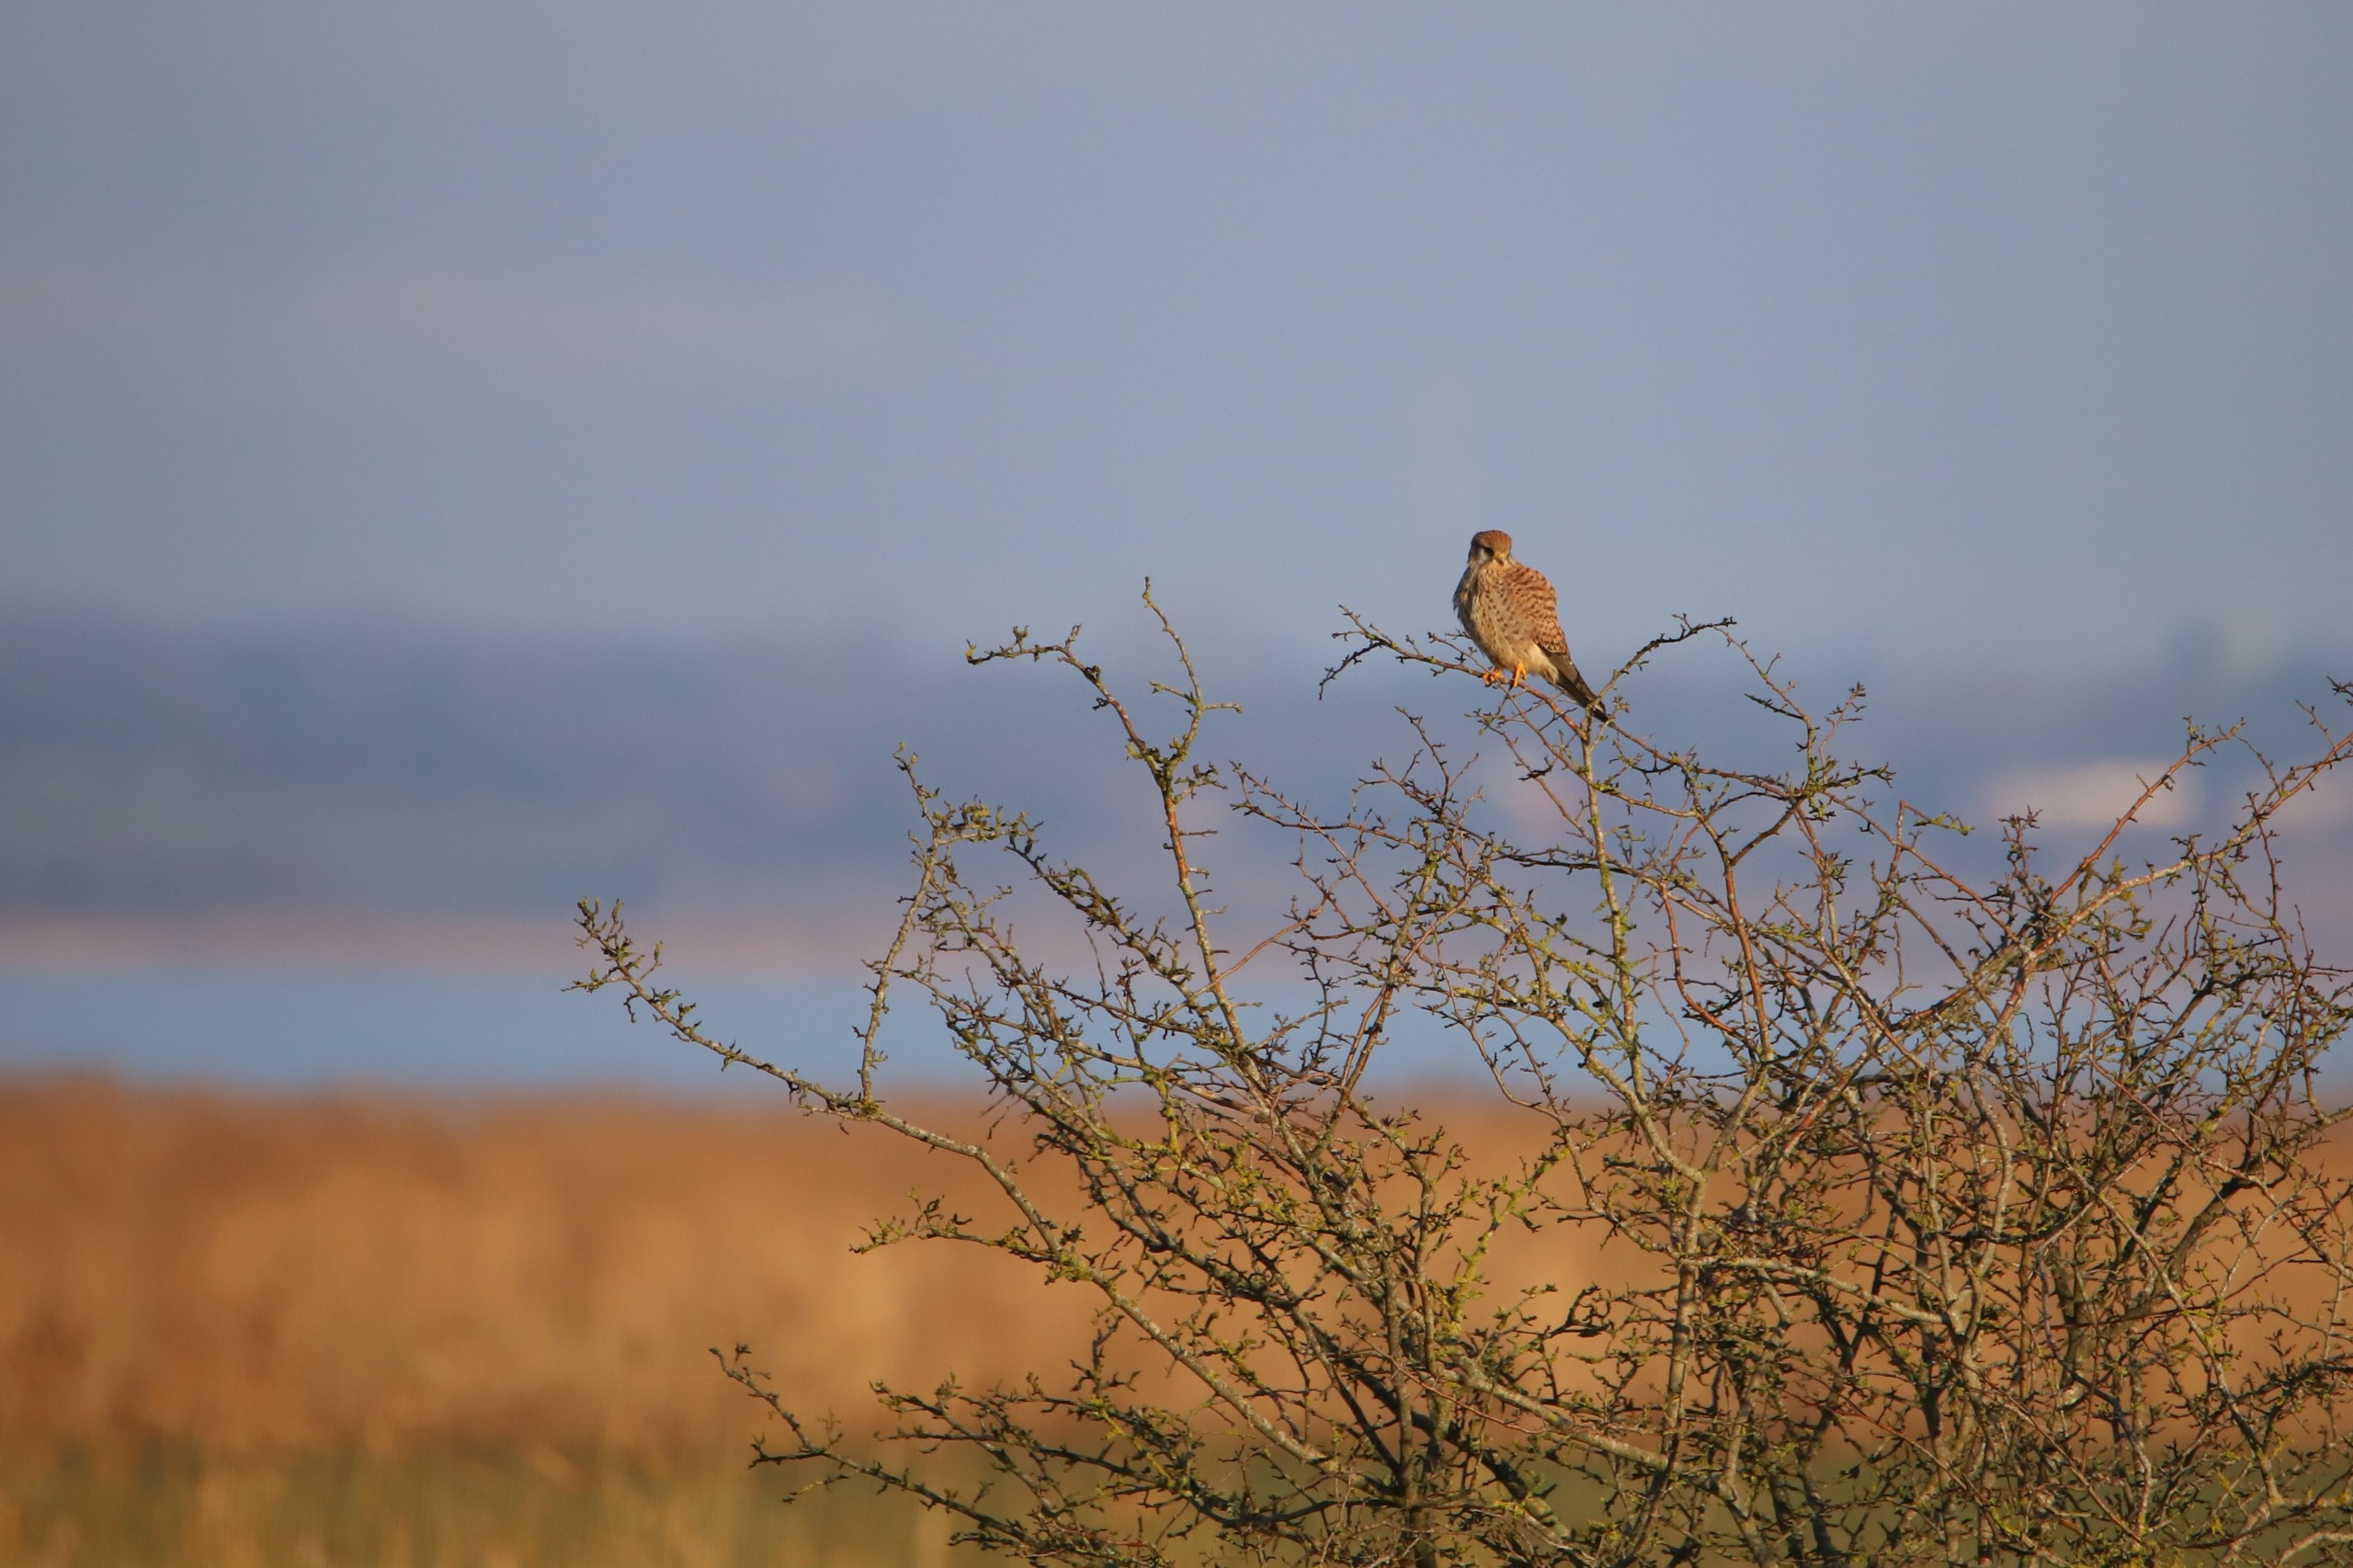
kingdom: Animalia
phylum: Chordata
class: Aves
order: Falconiformes
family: Falconidae
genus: Falco
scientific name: Falco tinnunculus
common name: Tårnfalk
